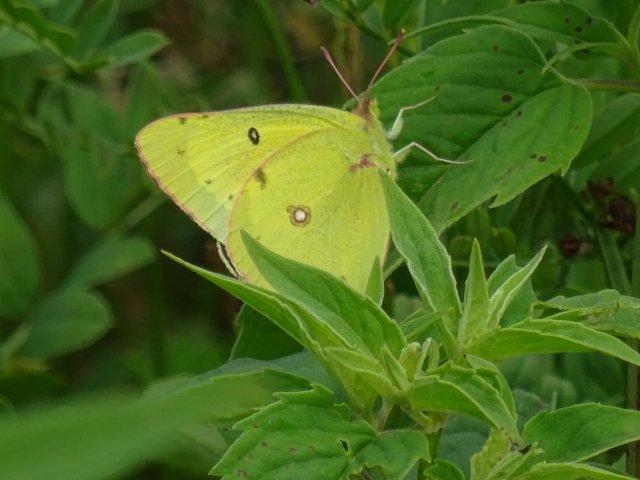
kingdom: Animalia
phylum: Arthropoda
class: Insecta
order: Lepidoptera
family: Pieridae
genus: Colias
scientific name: Colias philodice
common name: Clouded Sulphur
